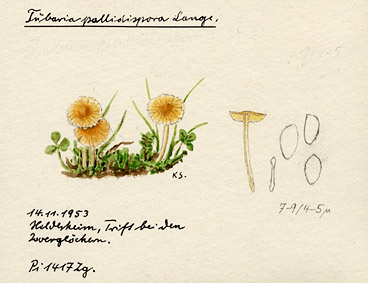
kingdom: Fungi
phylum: Basidiomycota
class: Agaricomycetes
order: Agaricales
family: Tubariaceae
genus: Tubaria
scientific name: Tubaria pallidispora
